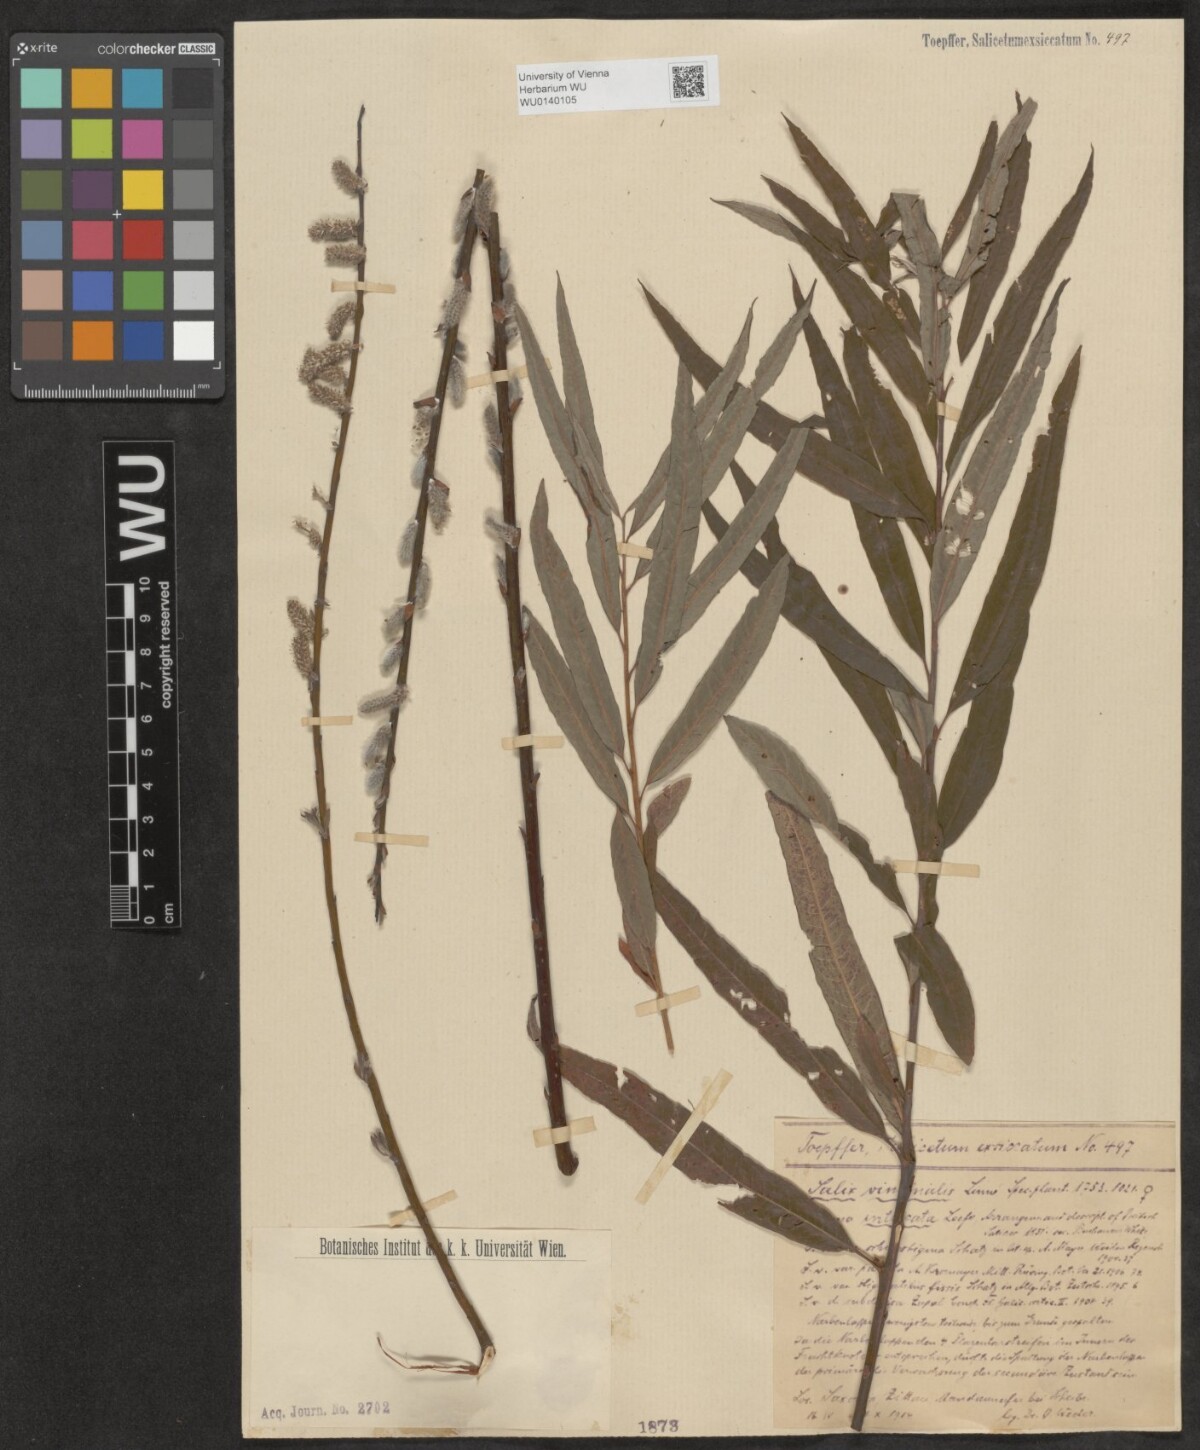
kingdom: Plantae
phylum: Tracheophyta
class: Magnoliopsida
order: Malpighiales
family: Salicaceae
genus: Salix
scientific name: Salix viminalis
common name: Osier
